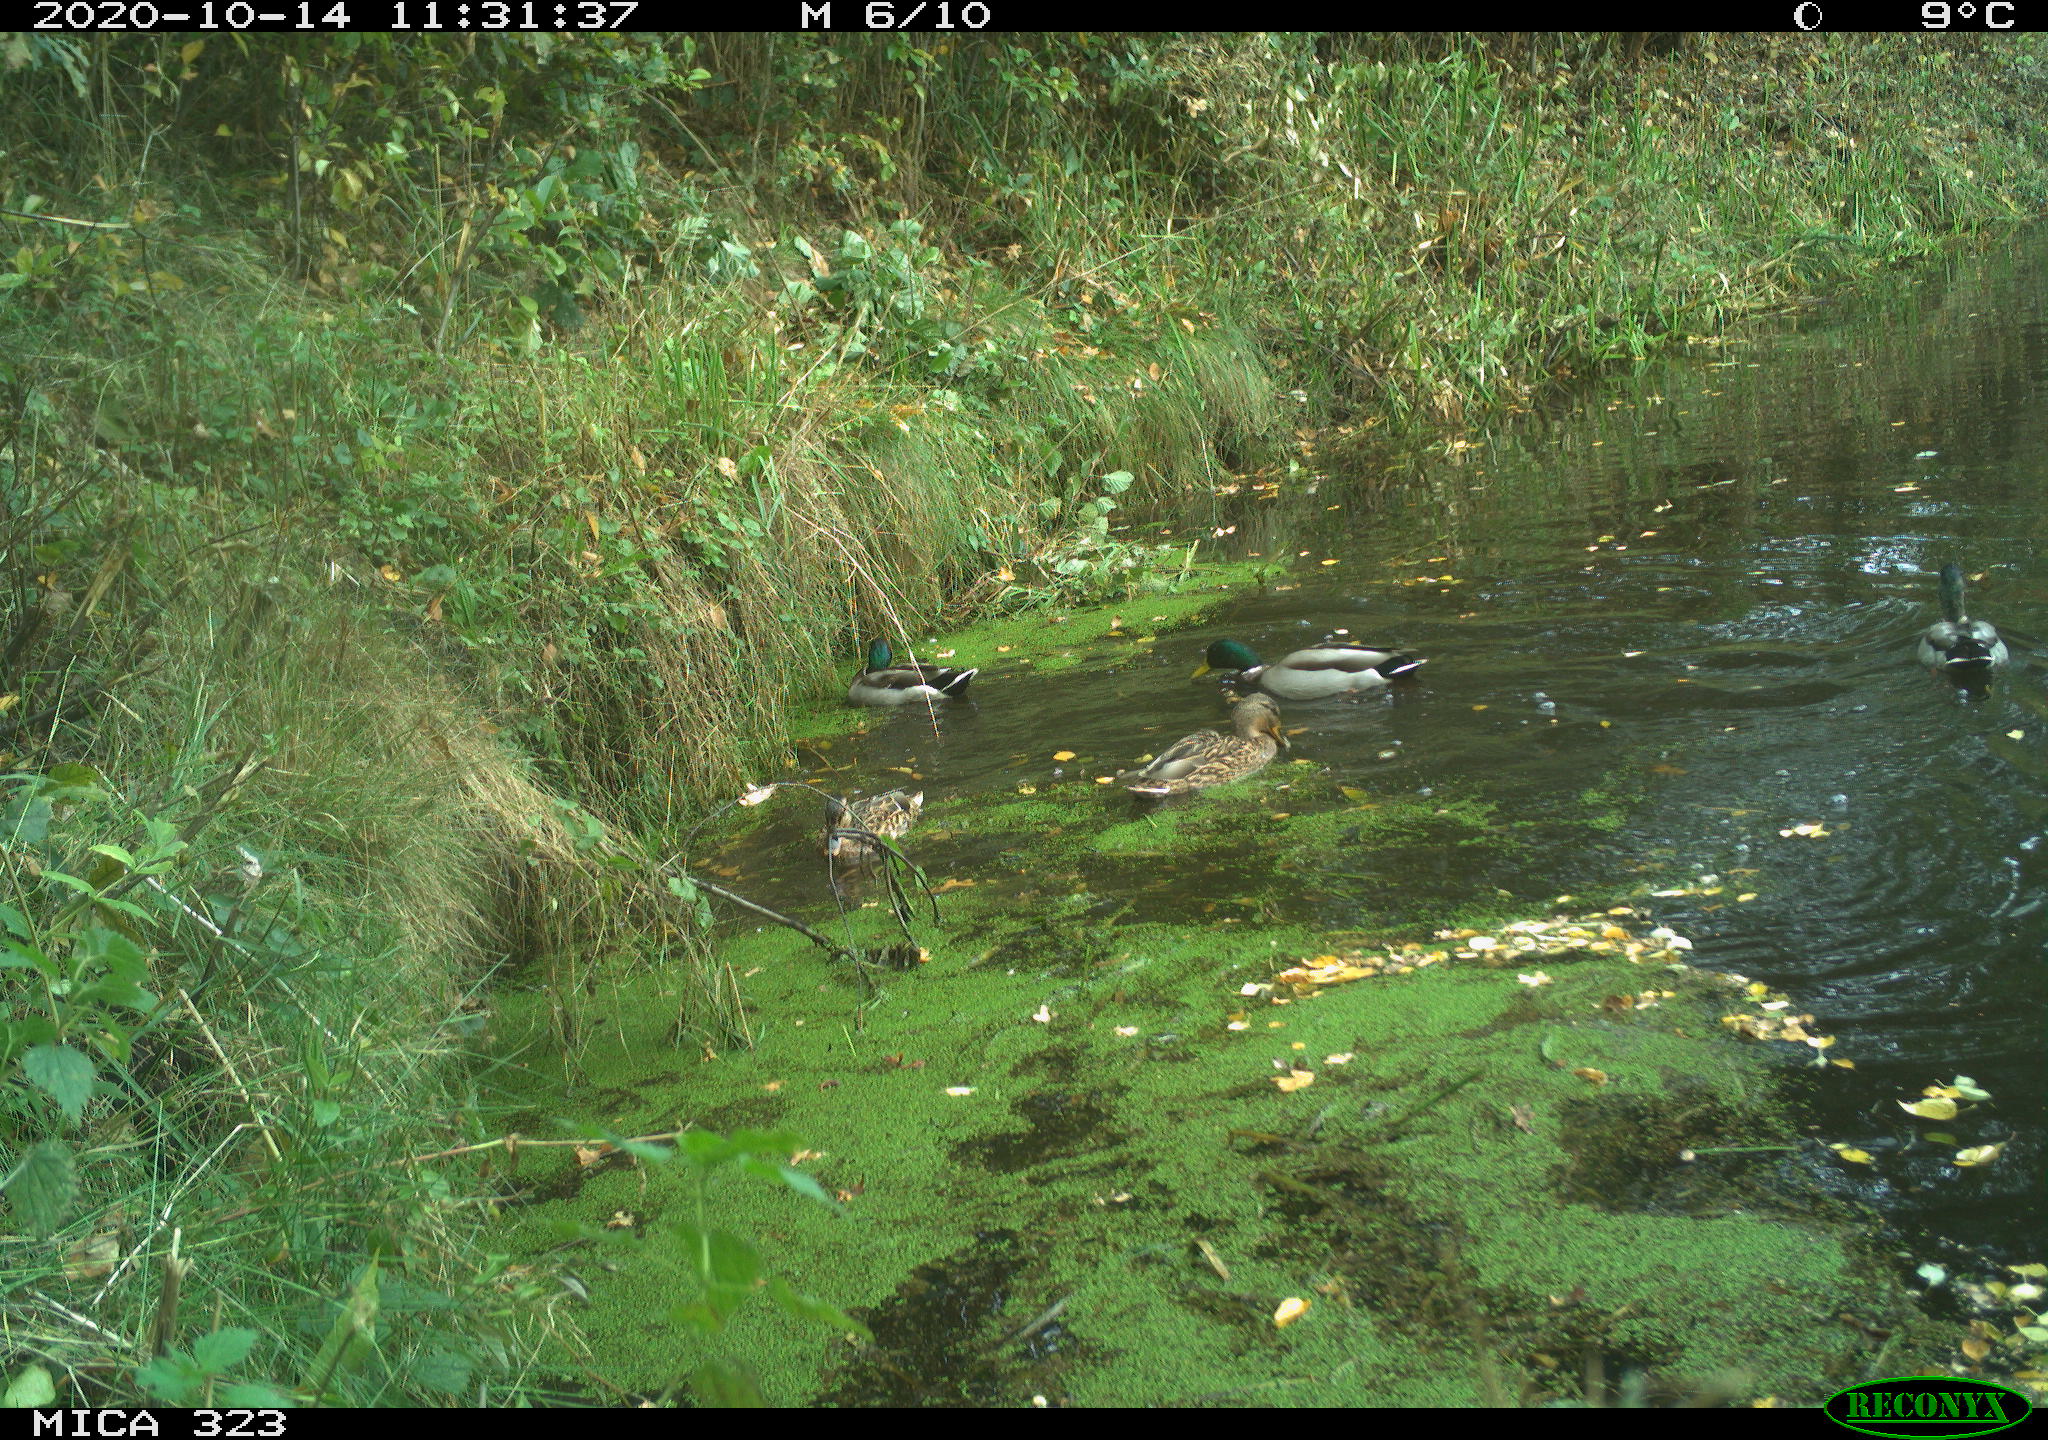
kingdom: Animalia
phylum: Chordata
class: Aves
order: Anseriformes
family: Anatidae
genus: Anas
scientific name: Anas platyrhynchos
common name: Mallard
